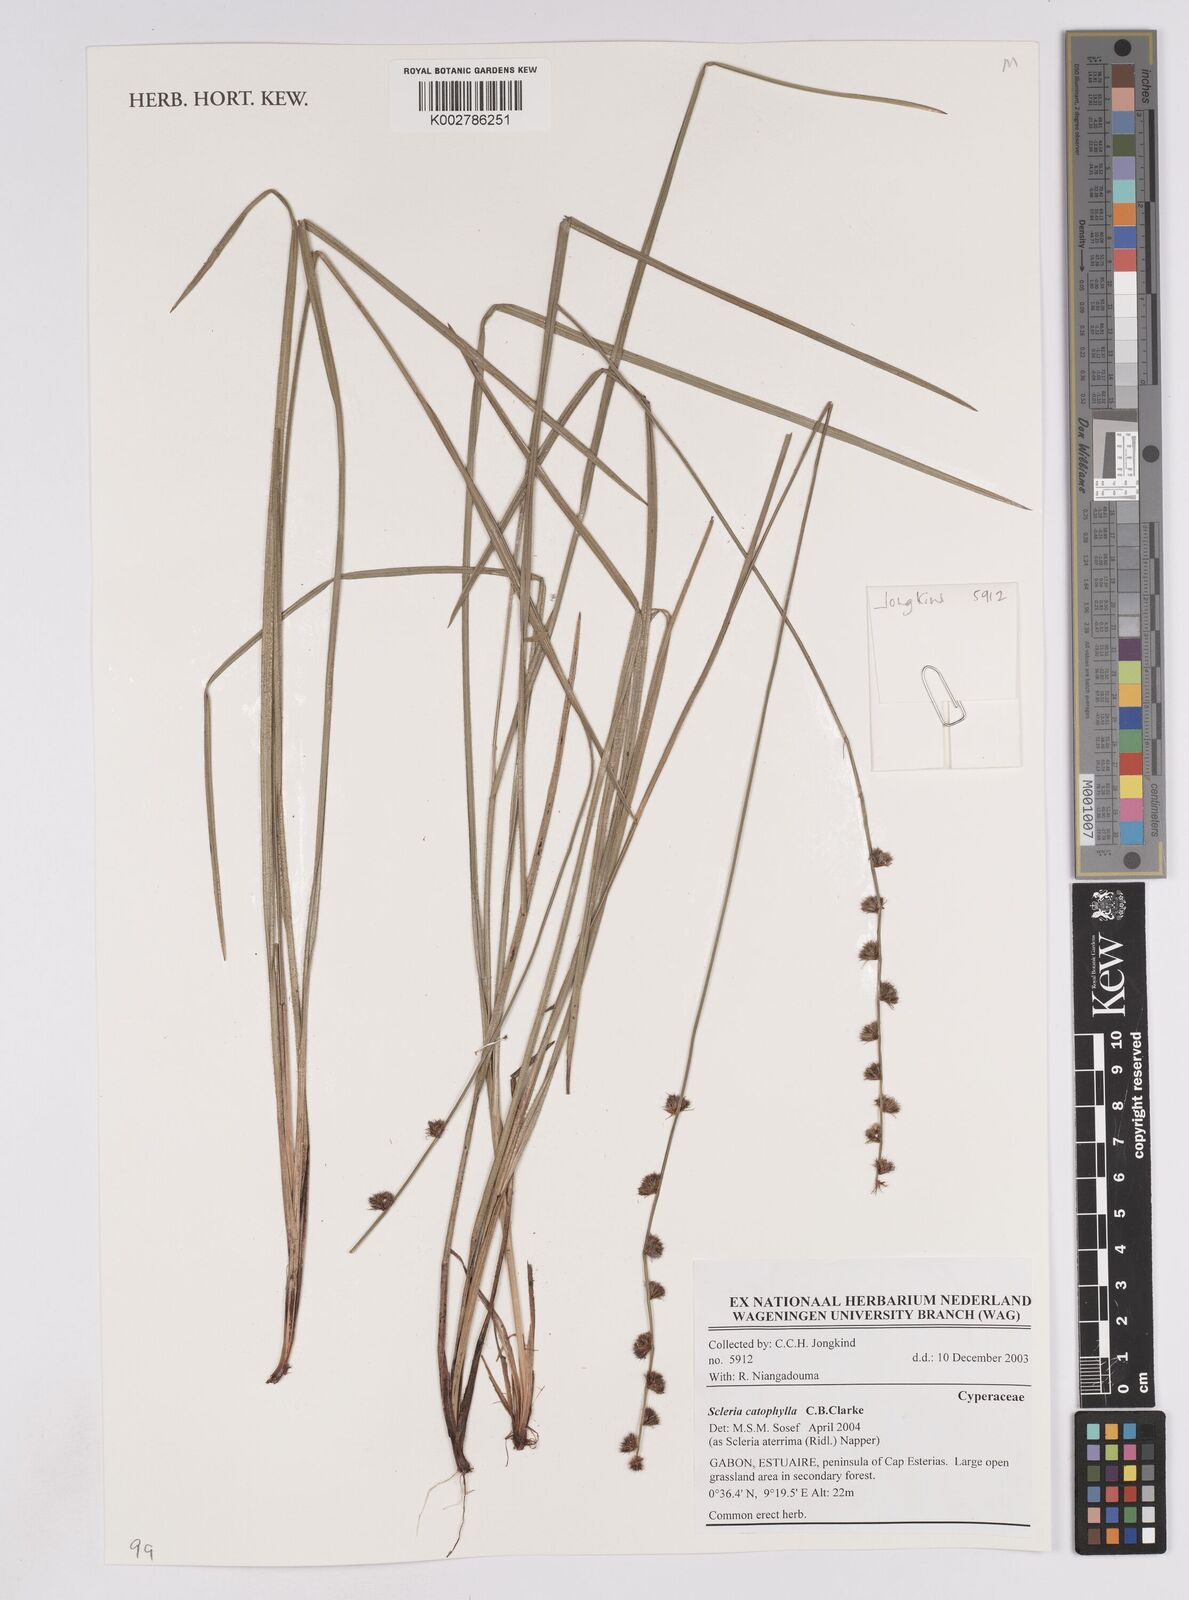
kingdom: Plantae
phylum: Tracheophyta
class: Liliopsida
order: Poales
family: Cyperaceae
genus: Scleria
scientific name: Scleria catophylla
